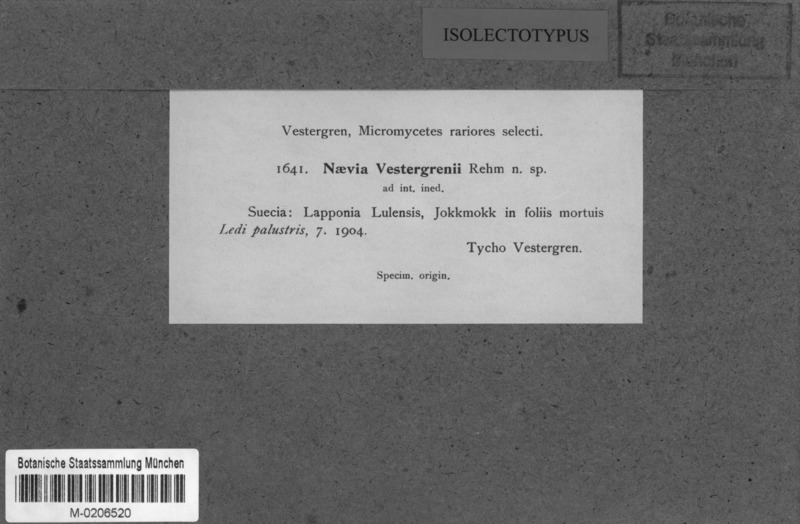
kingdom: Fungi
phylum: Ascomycota
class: Leotiomycetes
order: Phacidiales
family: Phacidiaceae
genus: Phacidium
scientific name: Phacidium vestergrenii
